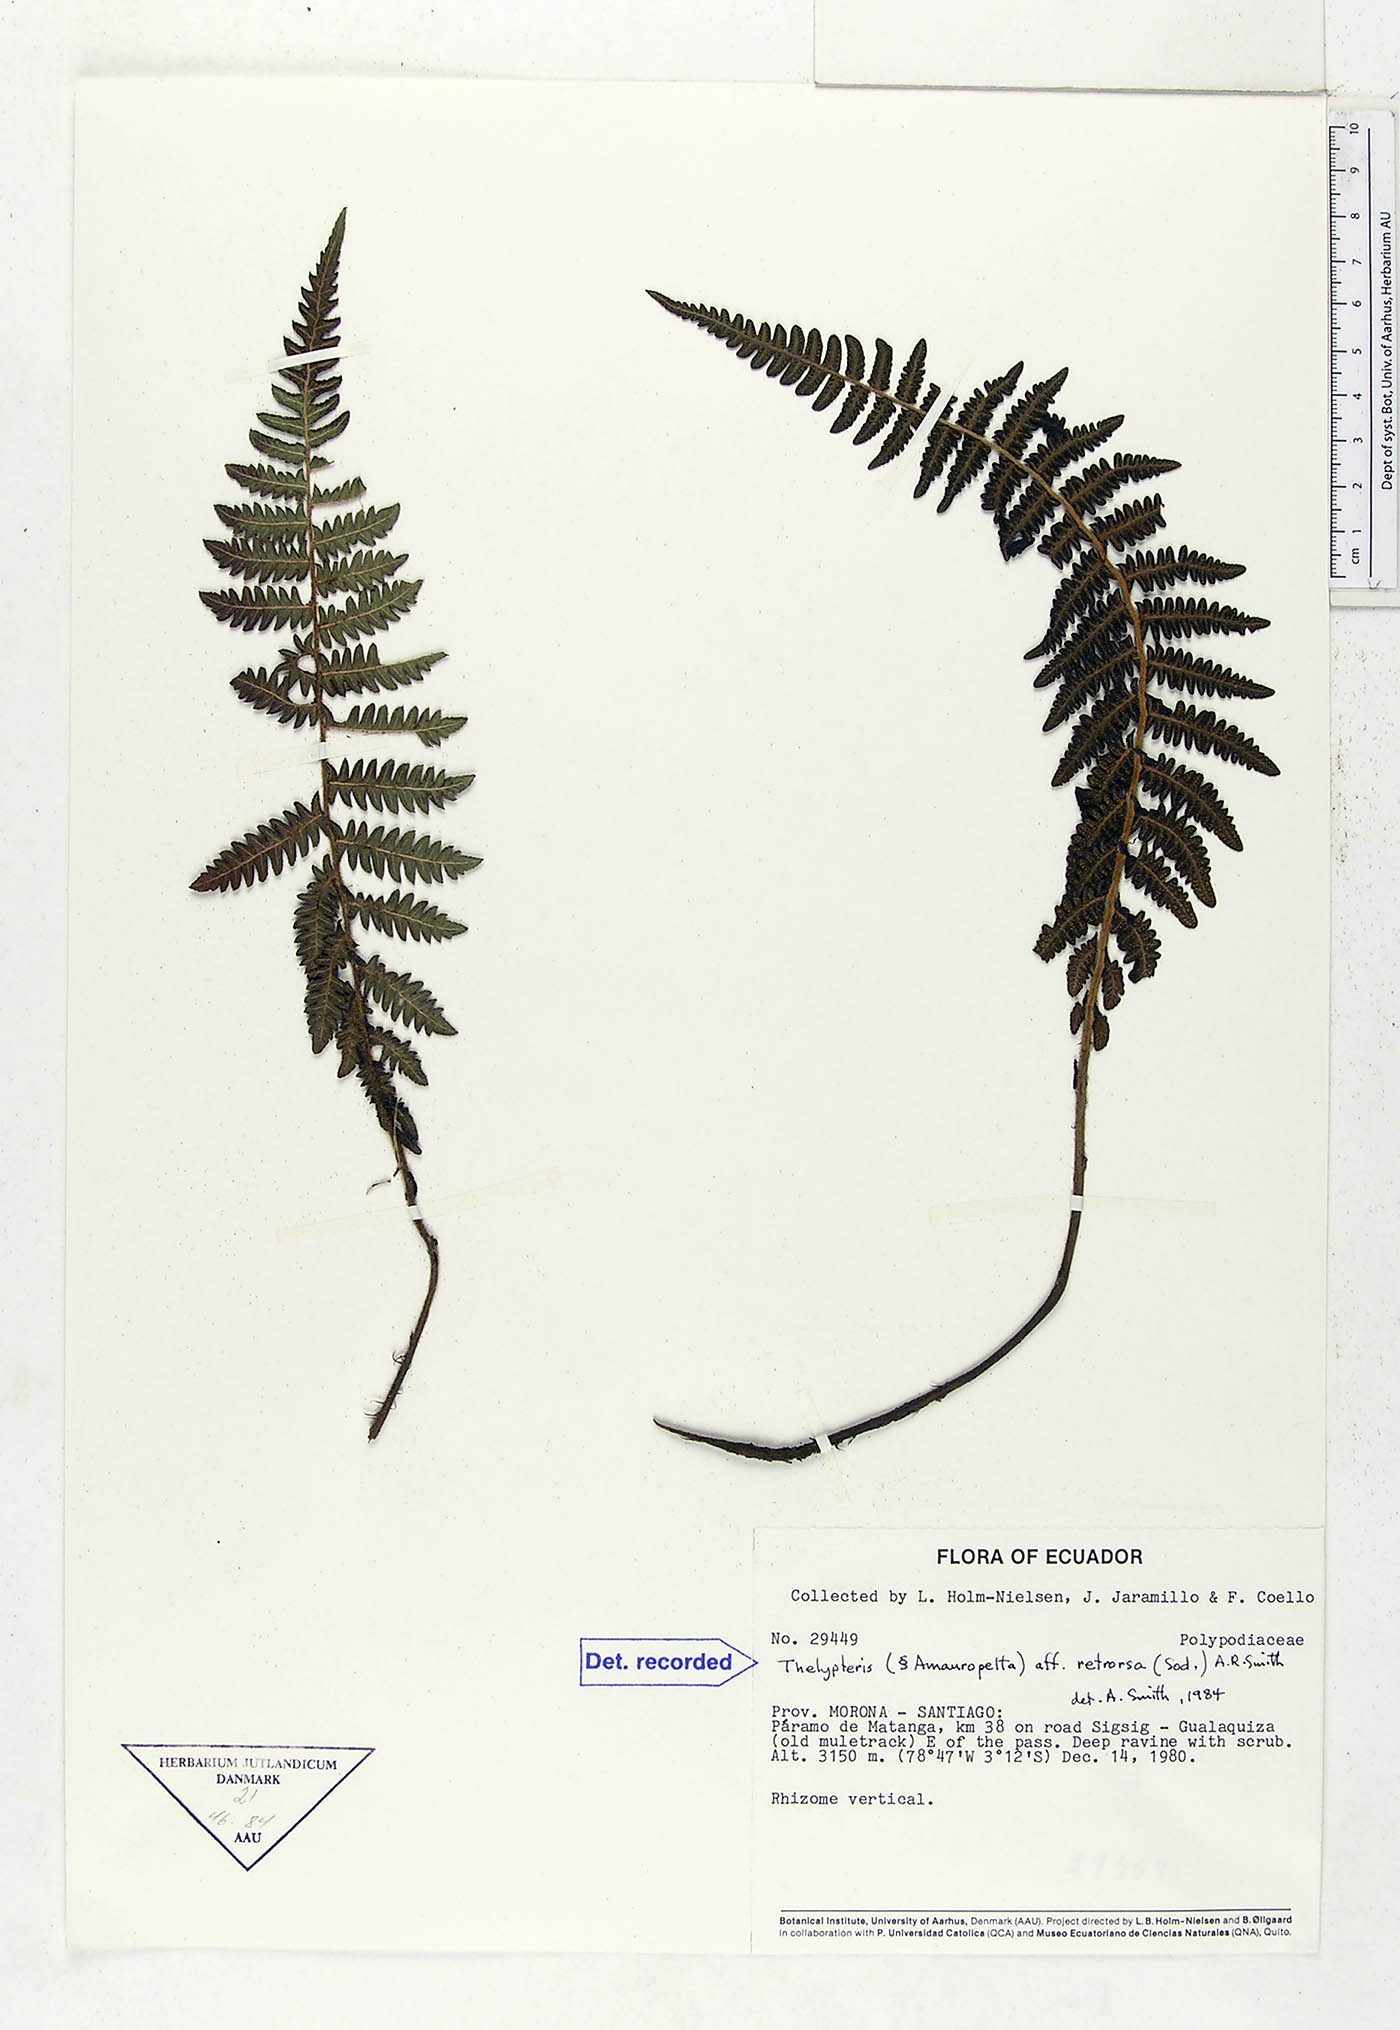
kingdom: Plantae
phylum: Tracheophyta
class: Polypodiopsida
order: Polypodiales
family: Thelypteridaceae
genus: Amauropelta
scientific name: Amauropelta pilosohispida
